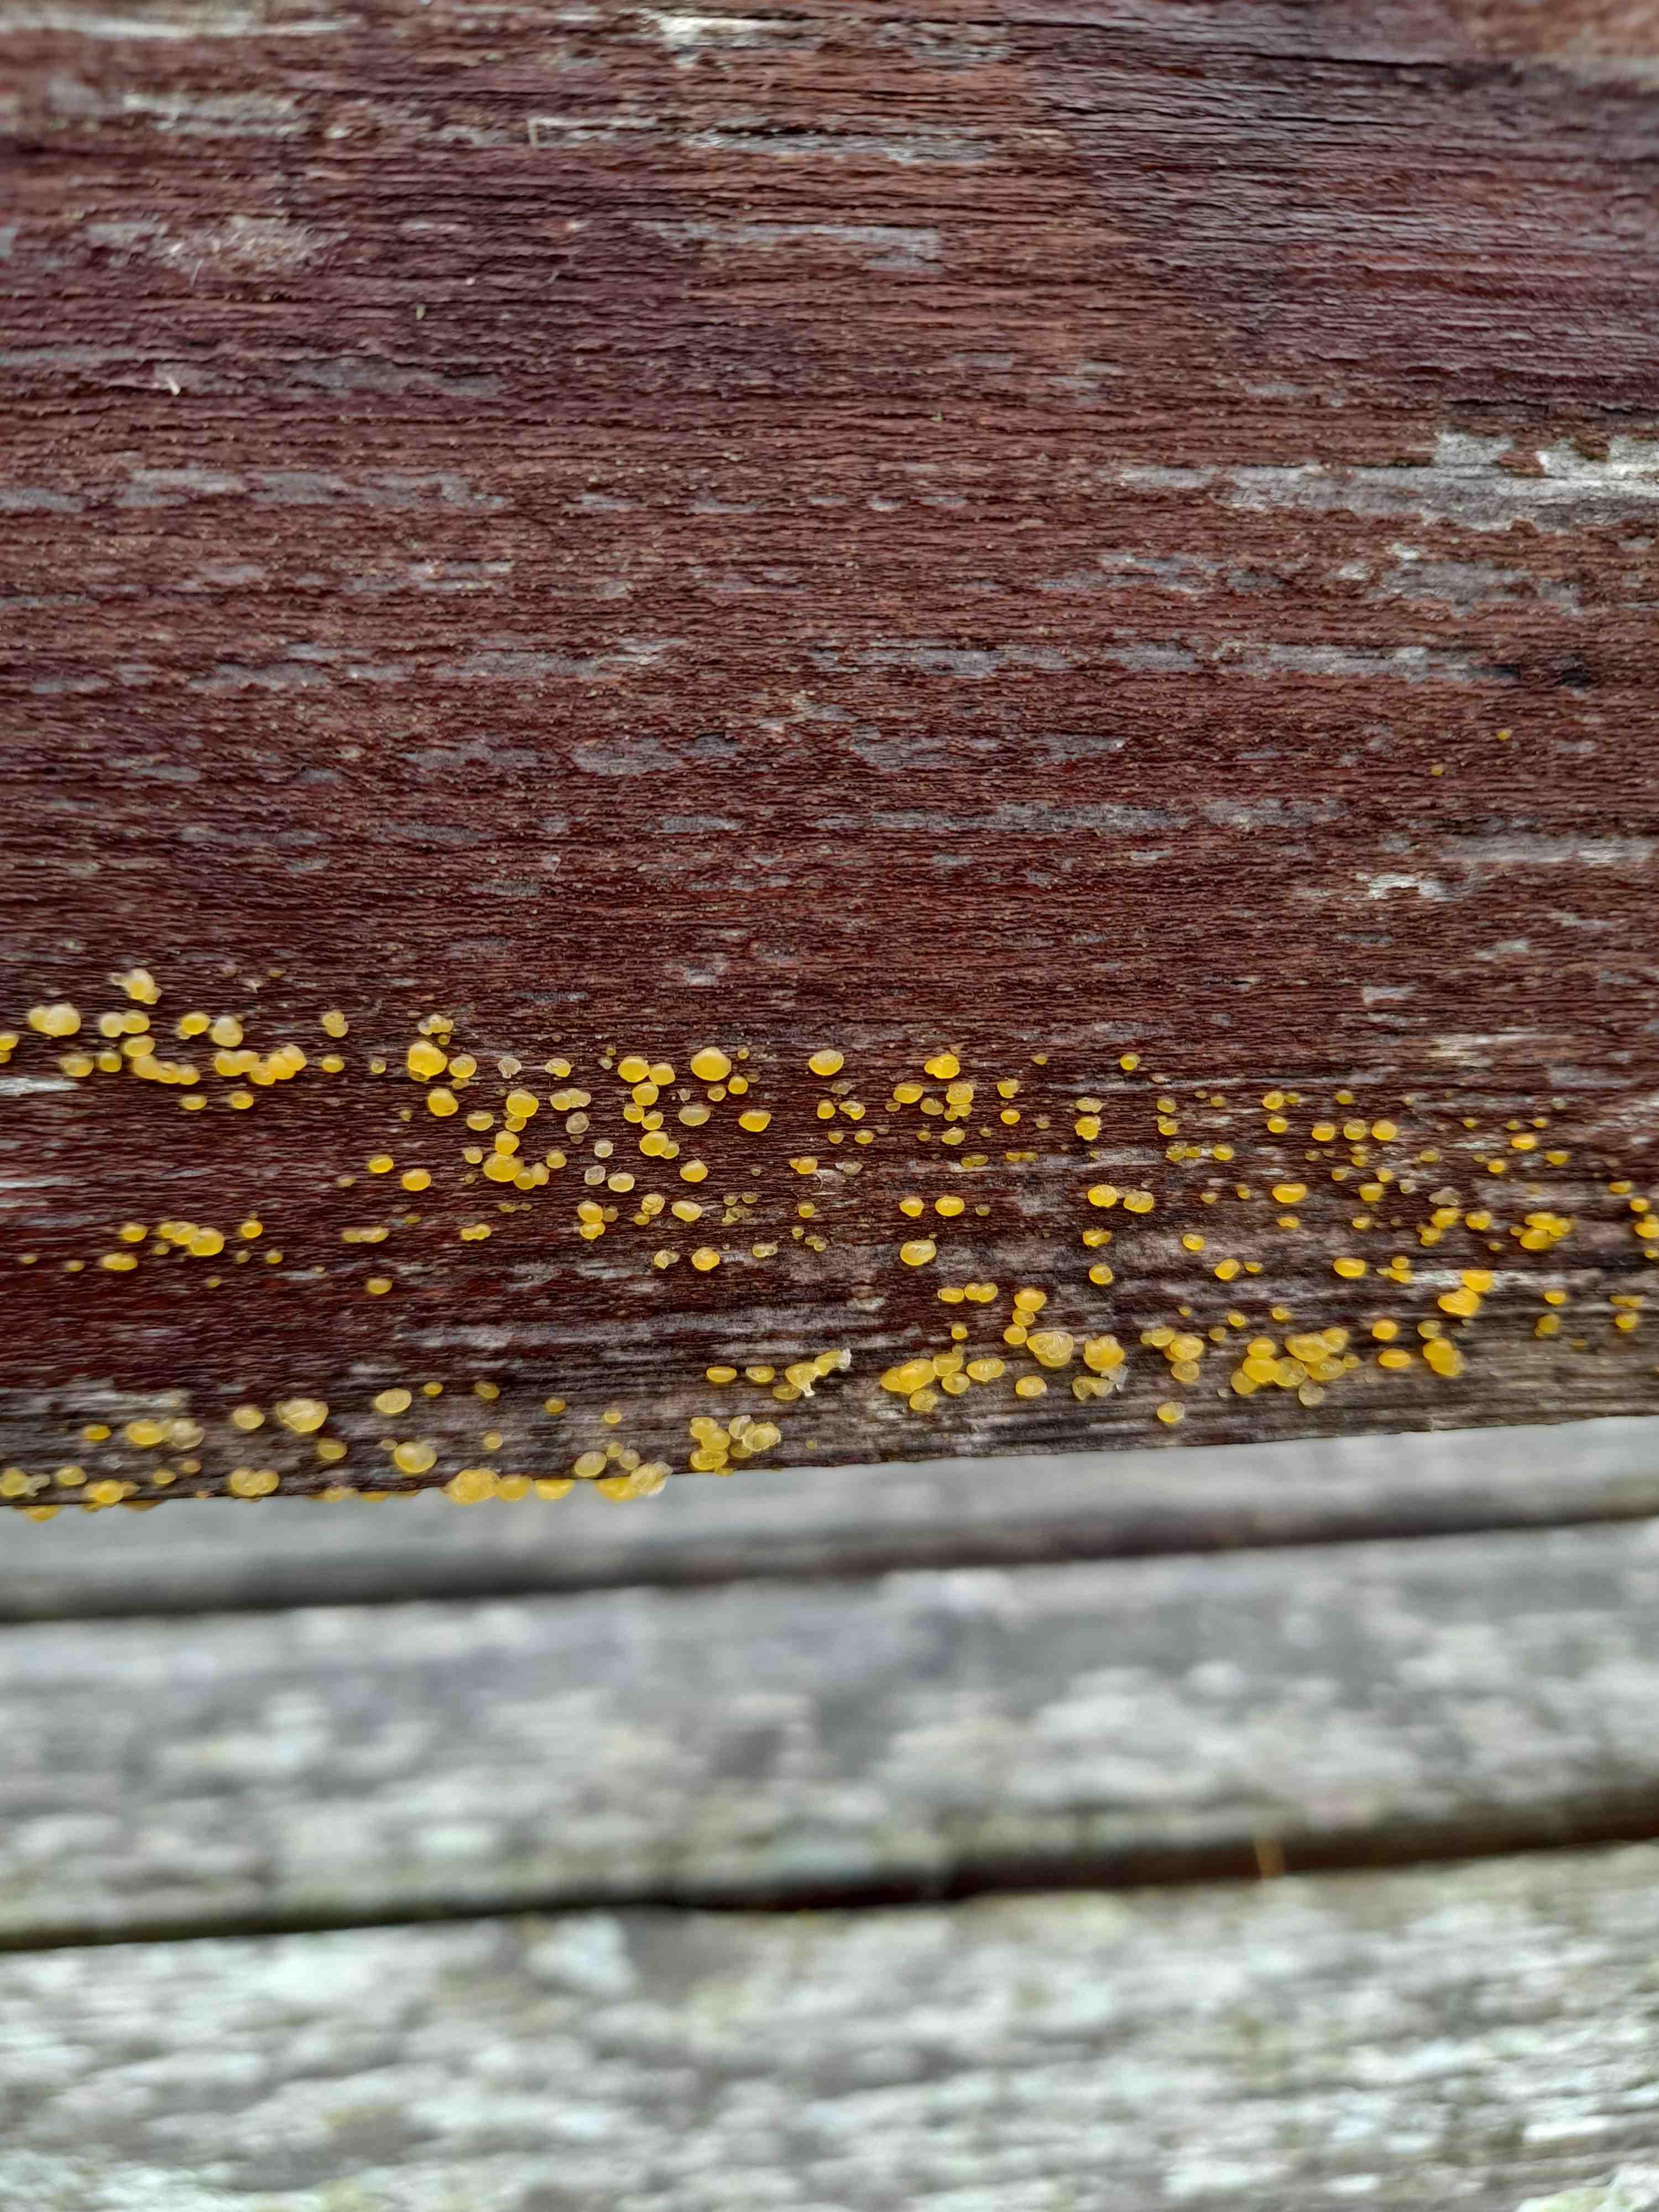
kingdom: Fungi
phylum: Basidiomycota
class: Dacrymycetes
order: Dacrymycetales
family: Dacrymycetaceae
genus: Dacrymyces
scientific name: Dacrymyces
